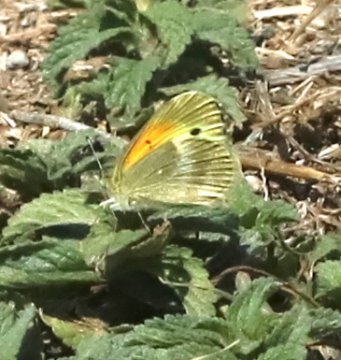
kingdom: Animalia
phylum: Arthropoda
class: Insecta
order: Lepidoptera
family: Pieridae
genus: Nathalis
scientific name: Nathalis iole
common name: Dainty Sulphur
